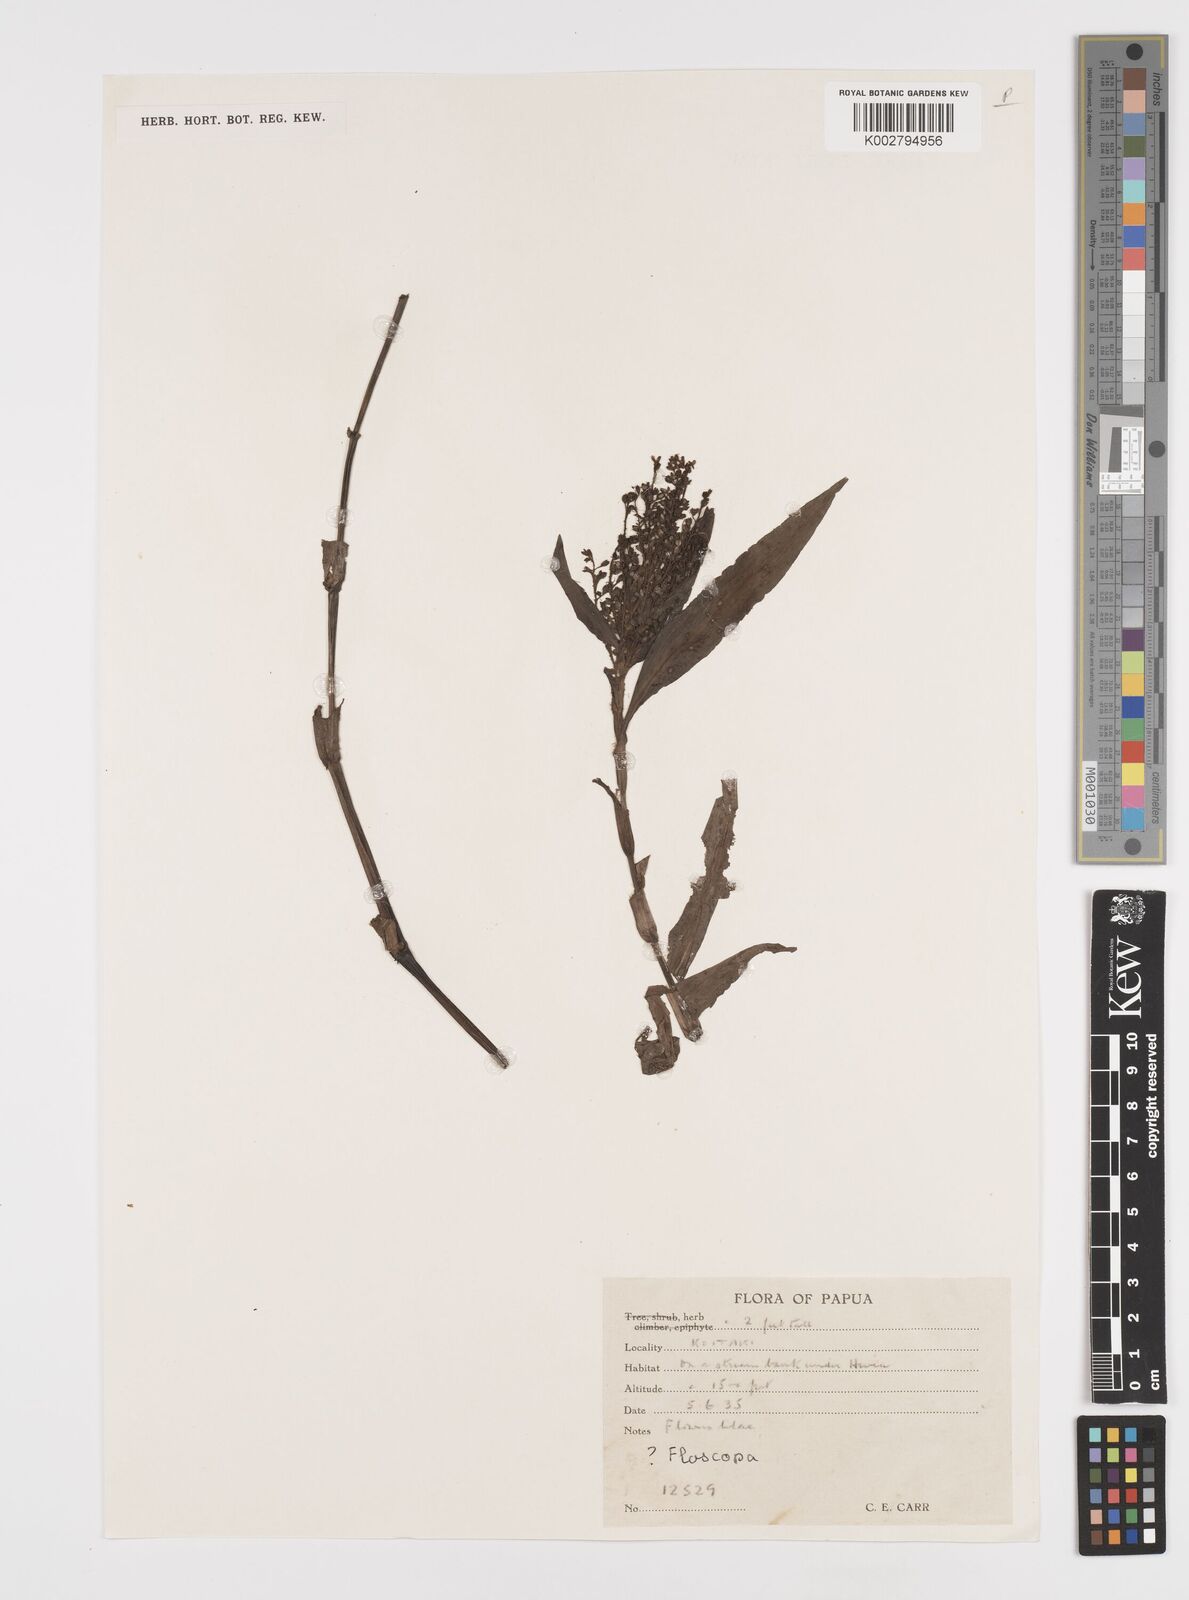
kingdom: Plantae
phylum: Tracheophyta
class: Liliopsida
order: Commelinales
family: Commelinaceae
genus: Floscopa
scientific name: Floscopa
